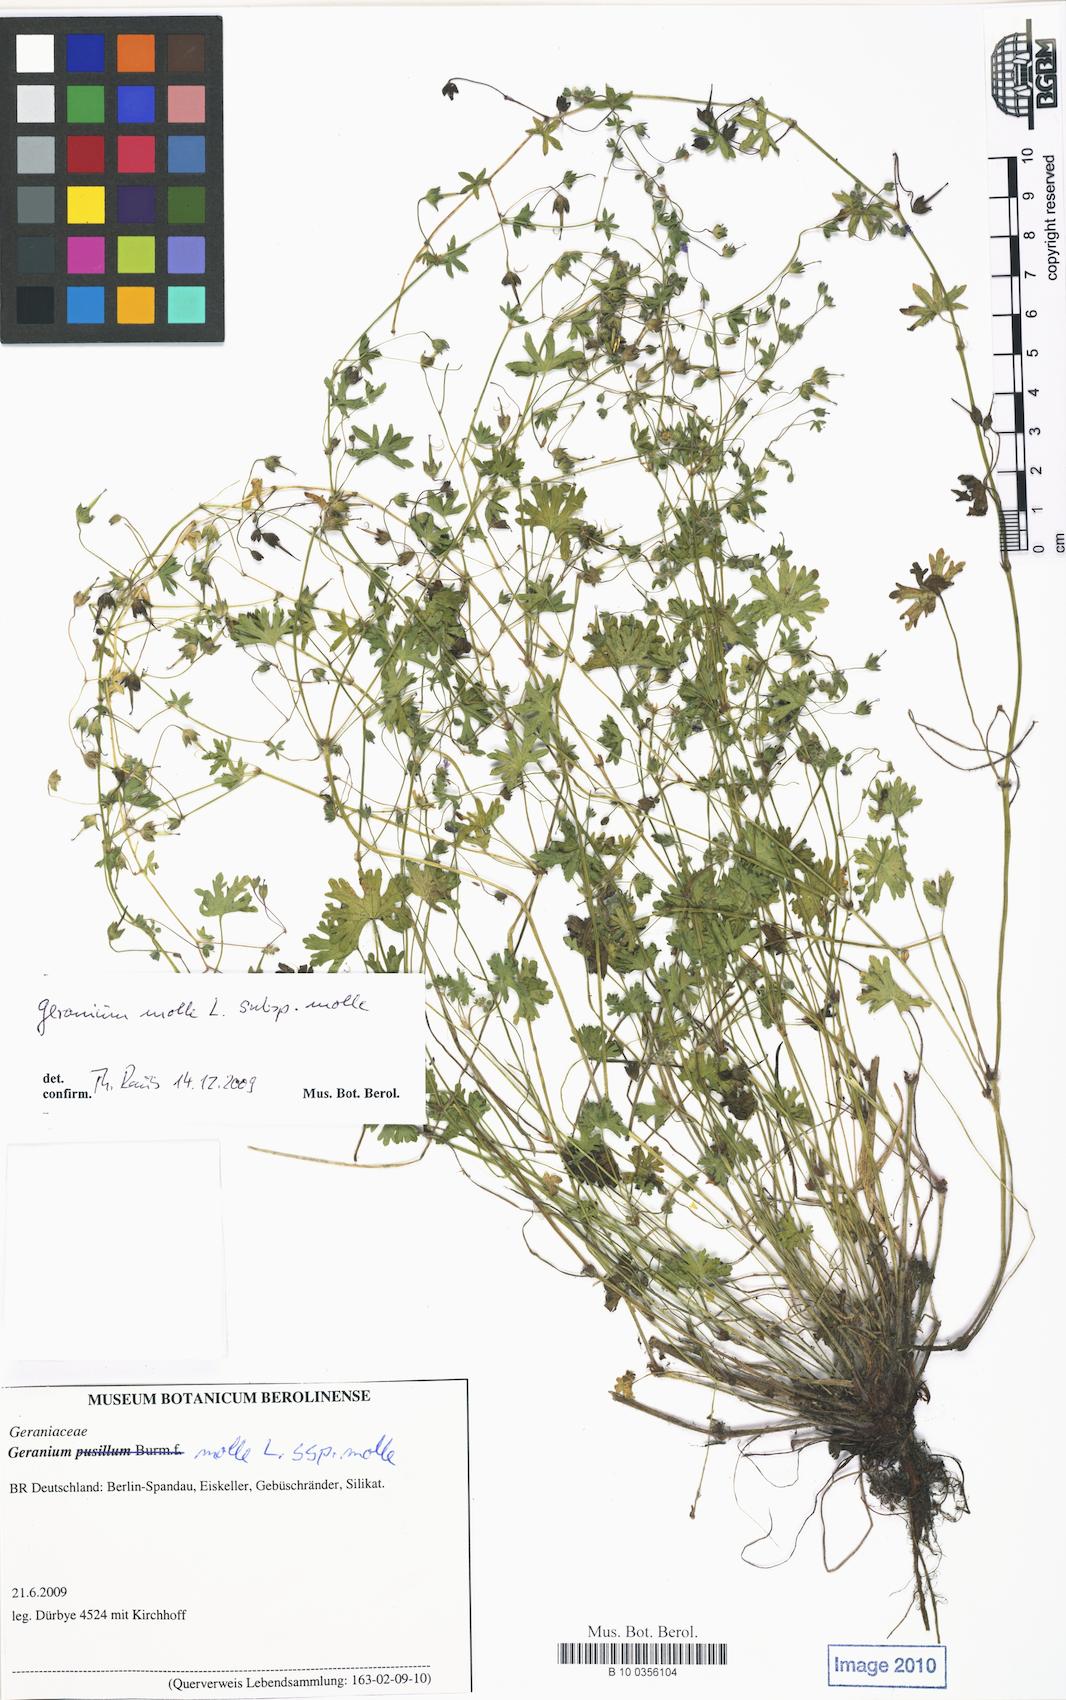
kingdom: Plantae
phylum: Tracheophyta
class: Magnoliopsida
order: Geraniales
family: Geraniaceae
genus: Geranium
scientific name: Geranium molle
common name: Dove's-foot crane's-bill
